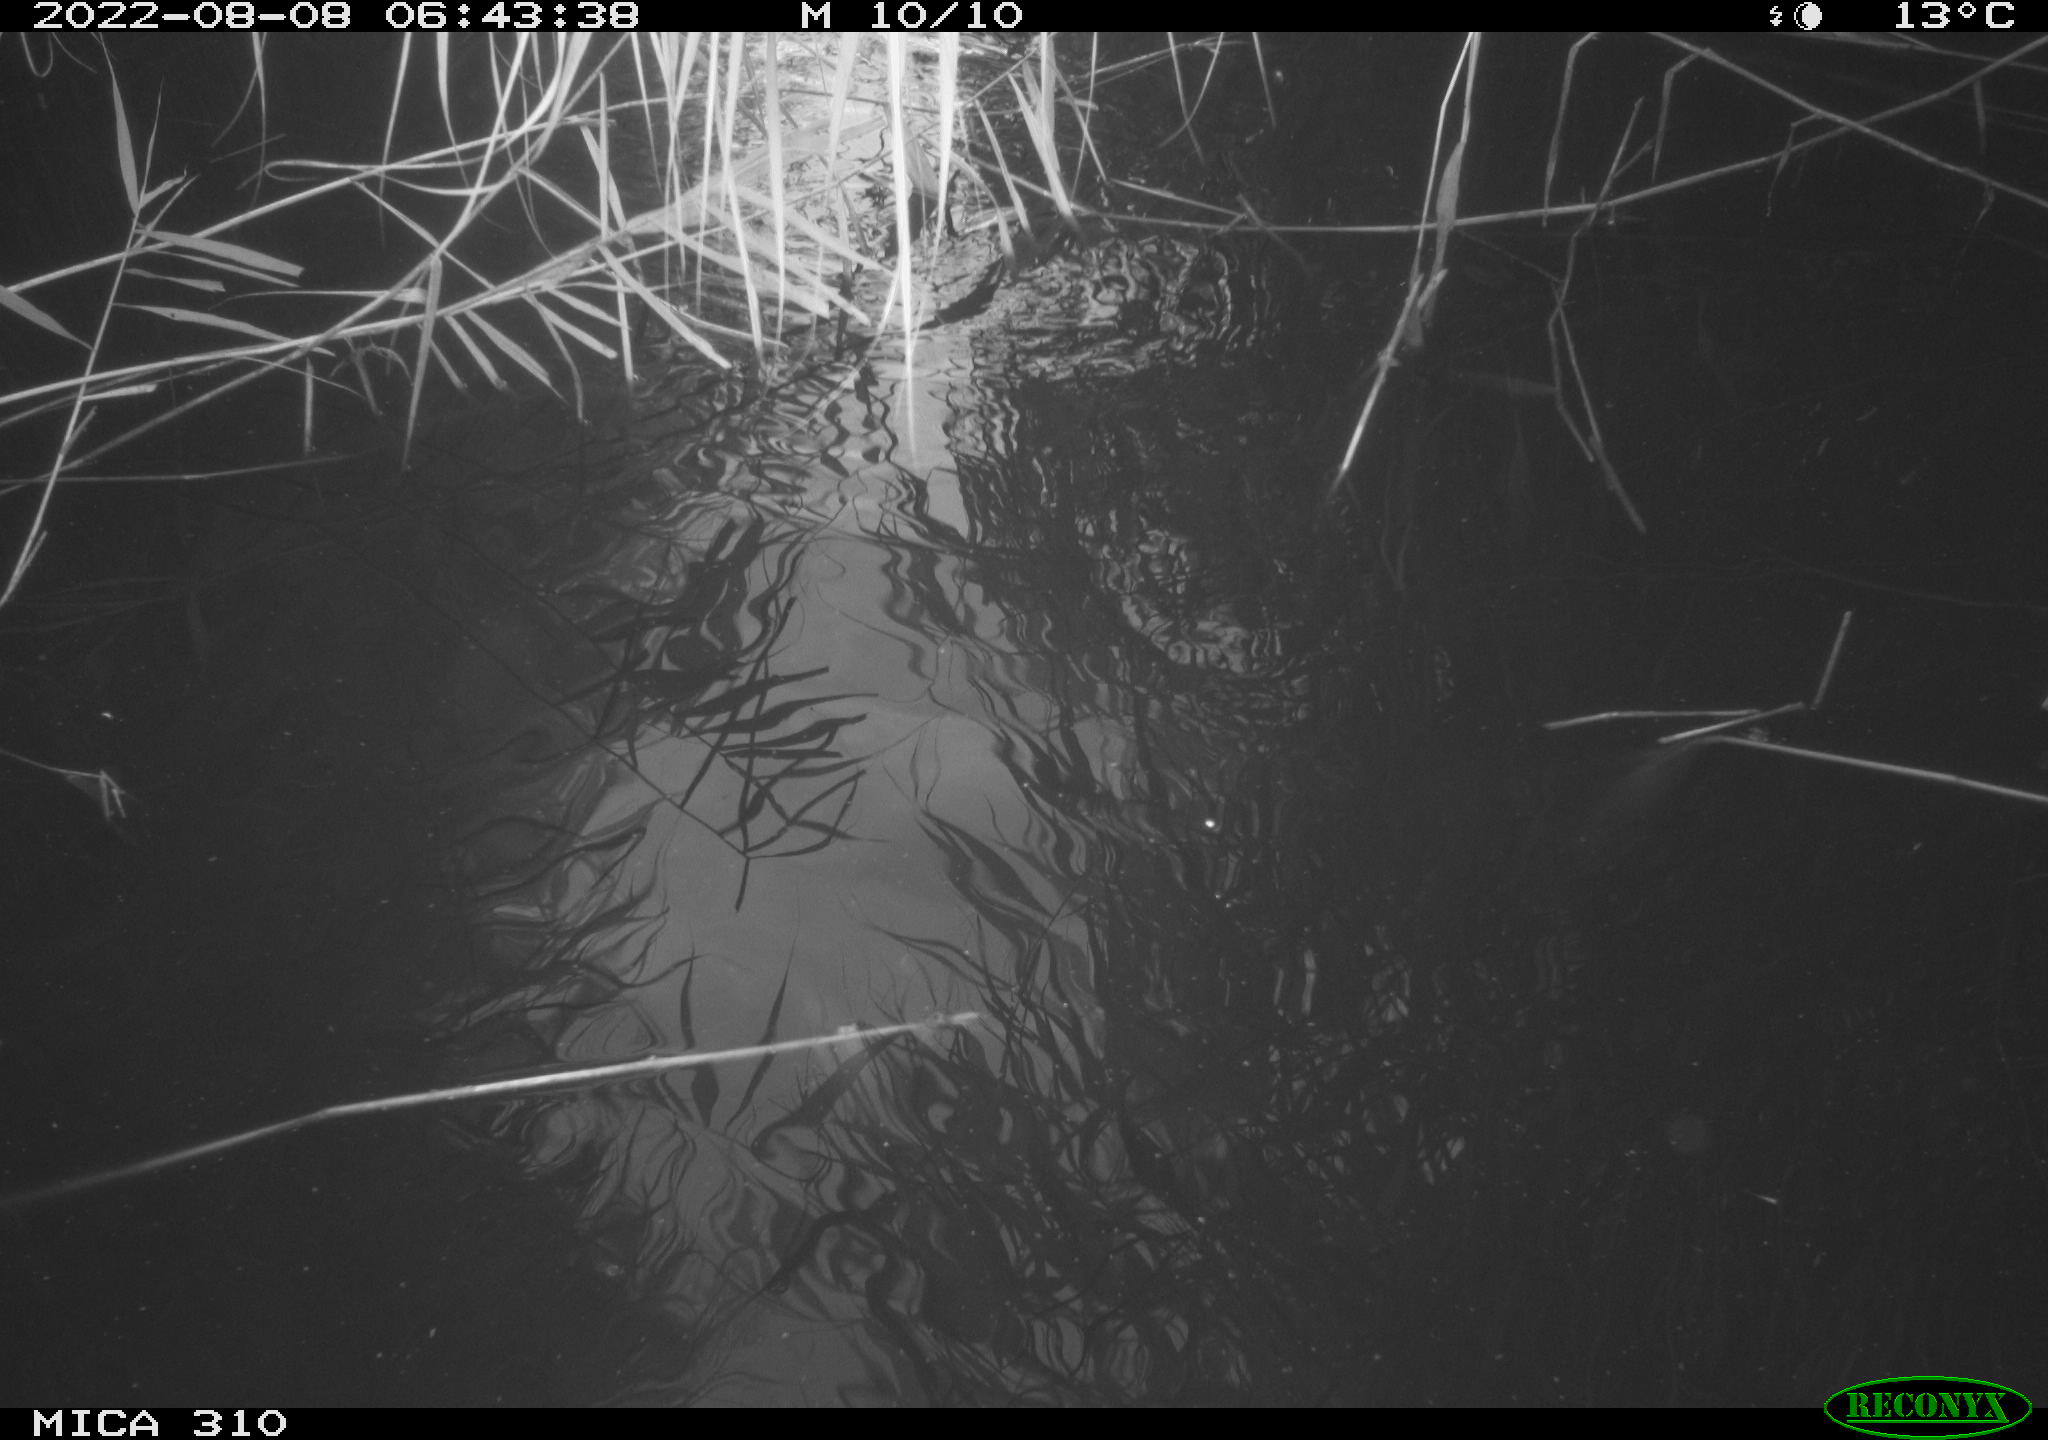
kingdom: Animalia
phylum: Chordata
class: Aves
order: Anseriformes
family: Anatidae
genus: Anas
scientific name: Anas platyrhynchos
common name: Mallard
